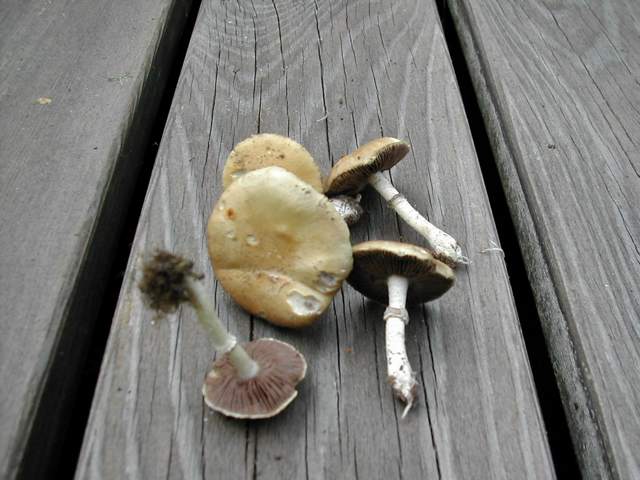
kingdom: Fungi
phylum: Basidiomycota
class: Agaricomycetes
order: Agaricales
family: Hymenogastraceae
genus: Psilocybe
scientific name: Psilocybe coronilla
